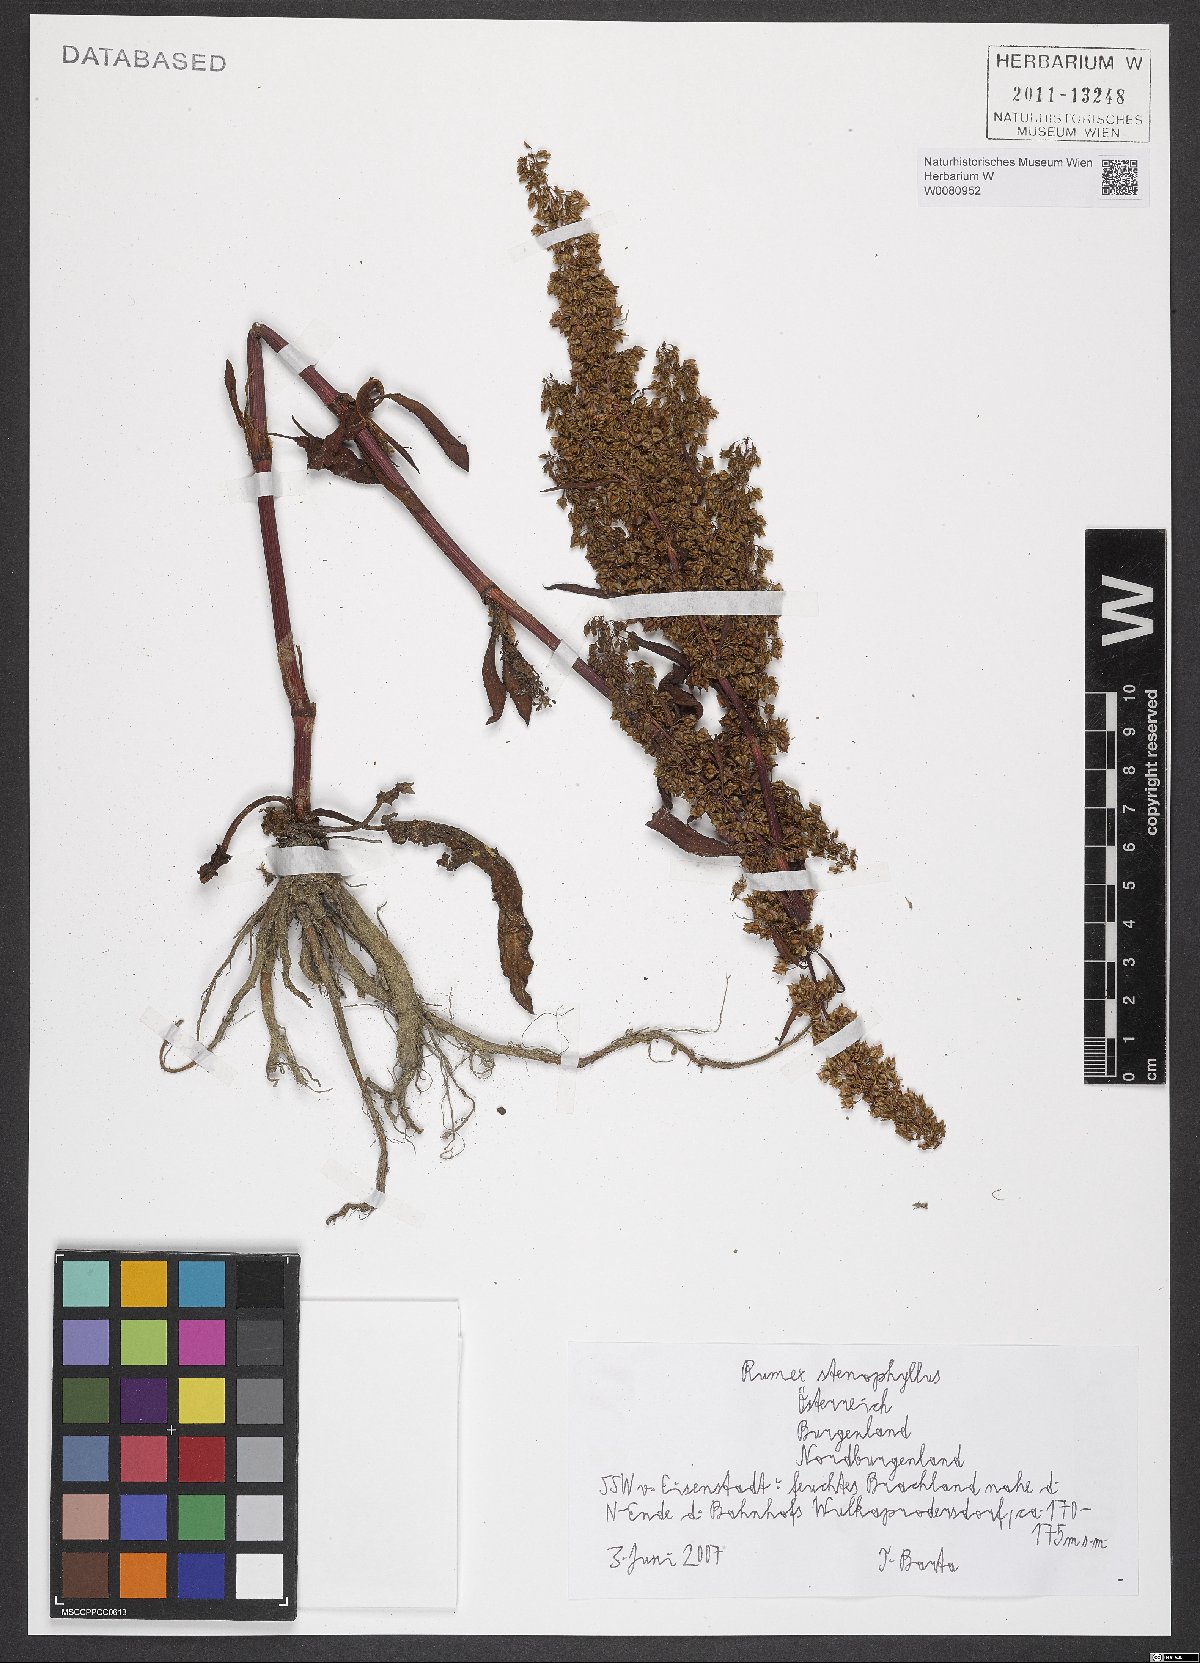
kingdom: Plantae
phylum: Tracheophyta
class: Magnoliopsida
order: Caryophyllales
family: Polygonaceae
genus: Rumex
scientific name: Rumex stenophyllus
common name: Narrowleaf dock
